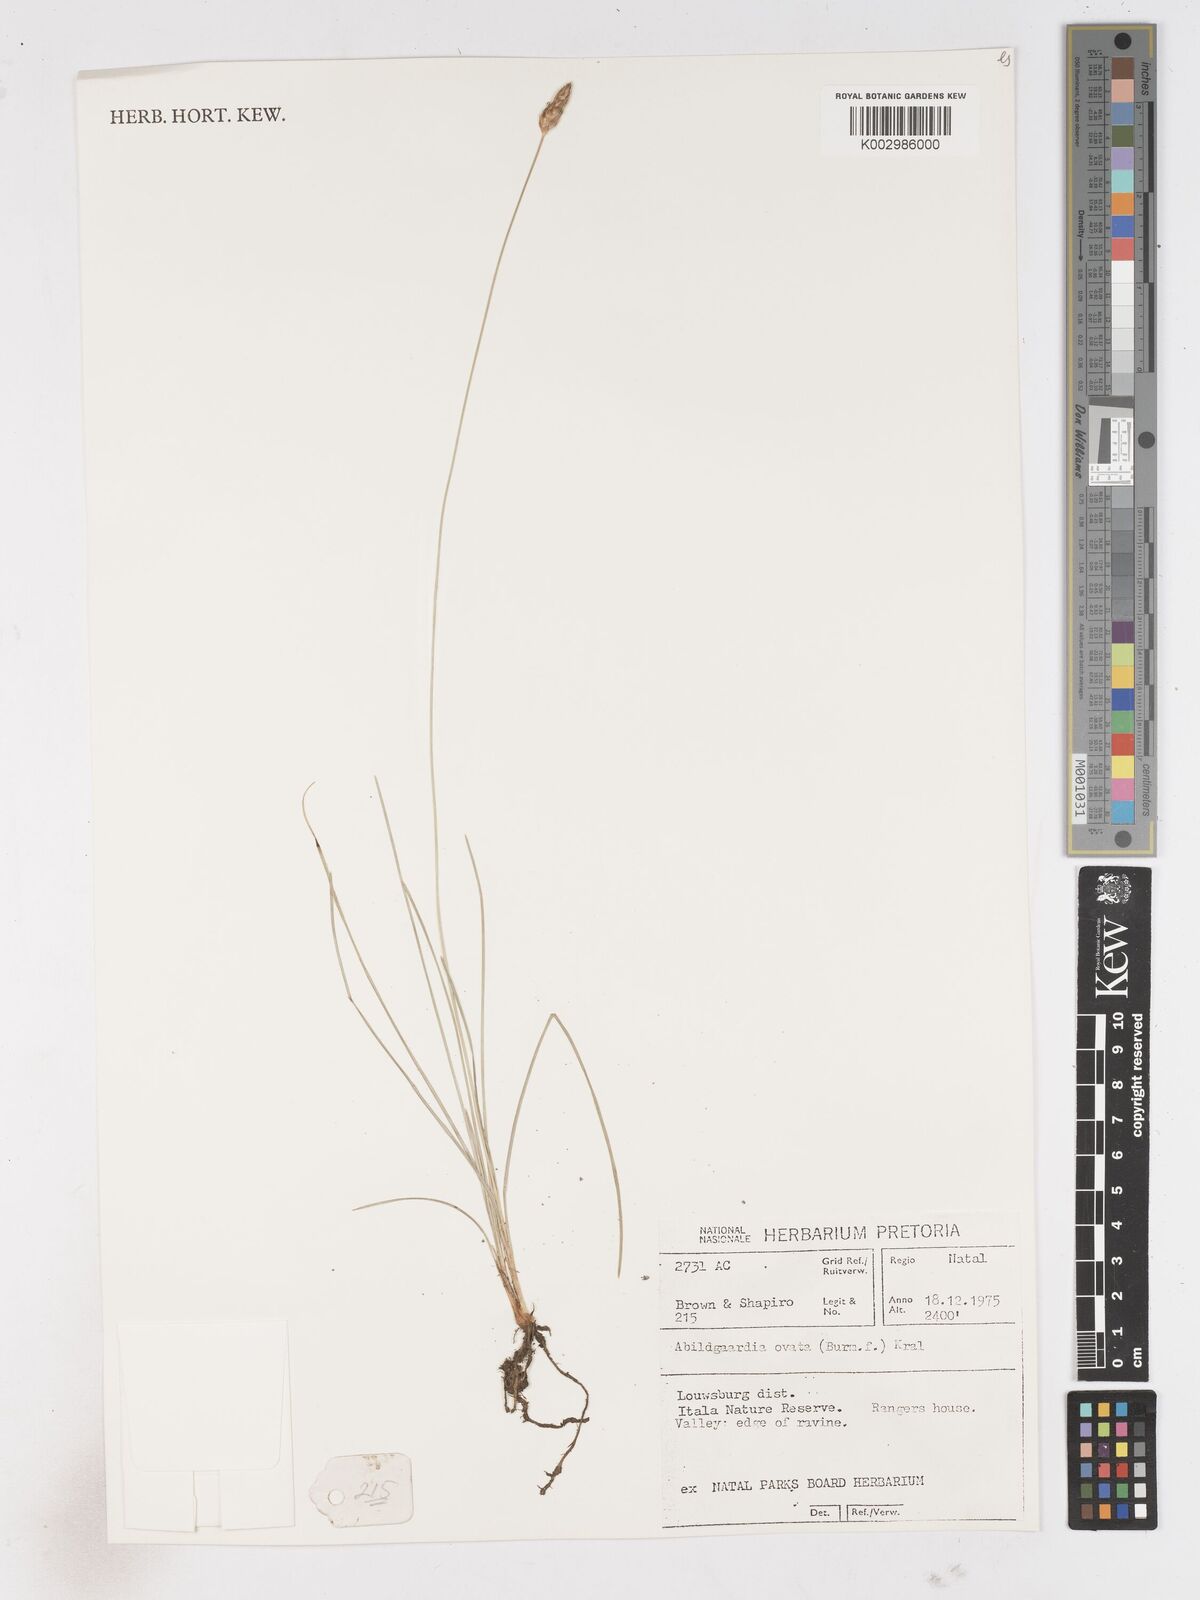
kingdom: Plantae
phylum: Tracheophyta
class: Liliopsida
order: Poales
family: Cyperaceae
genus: Abildgaardia
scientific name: Abildgaardia ovata
